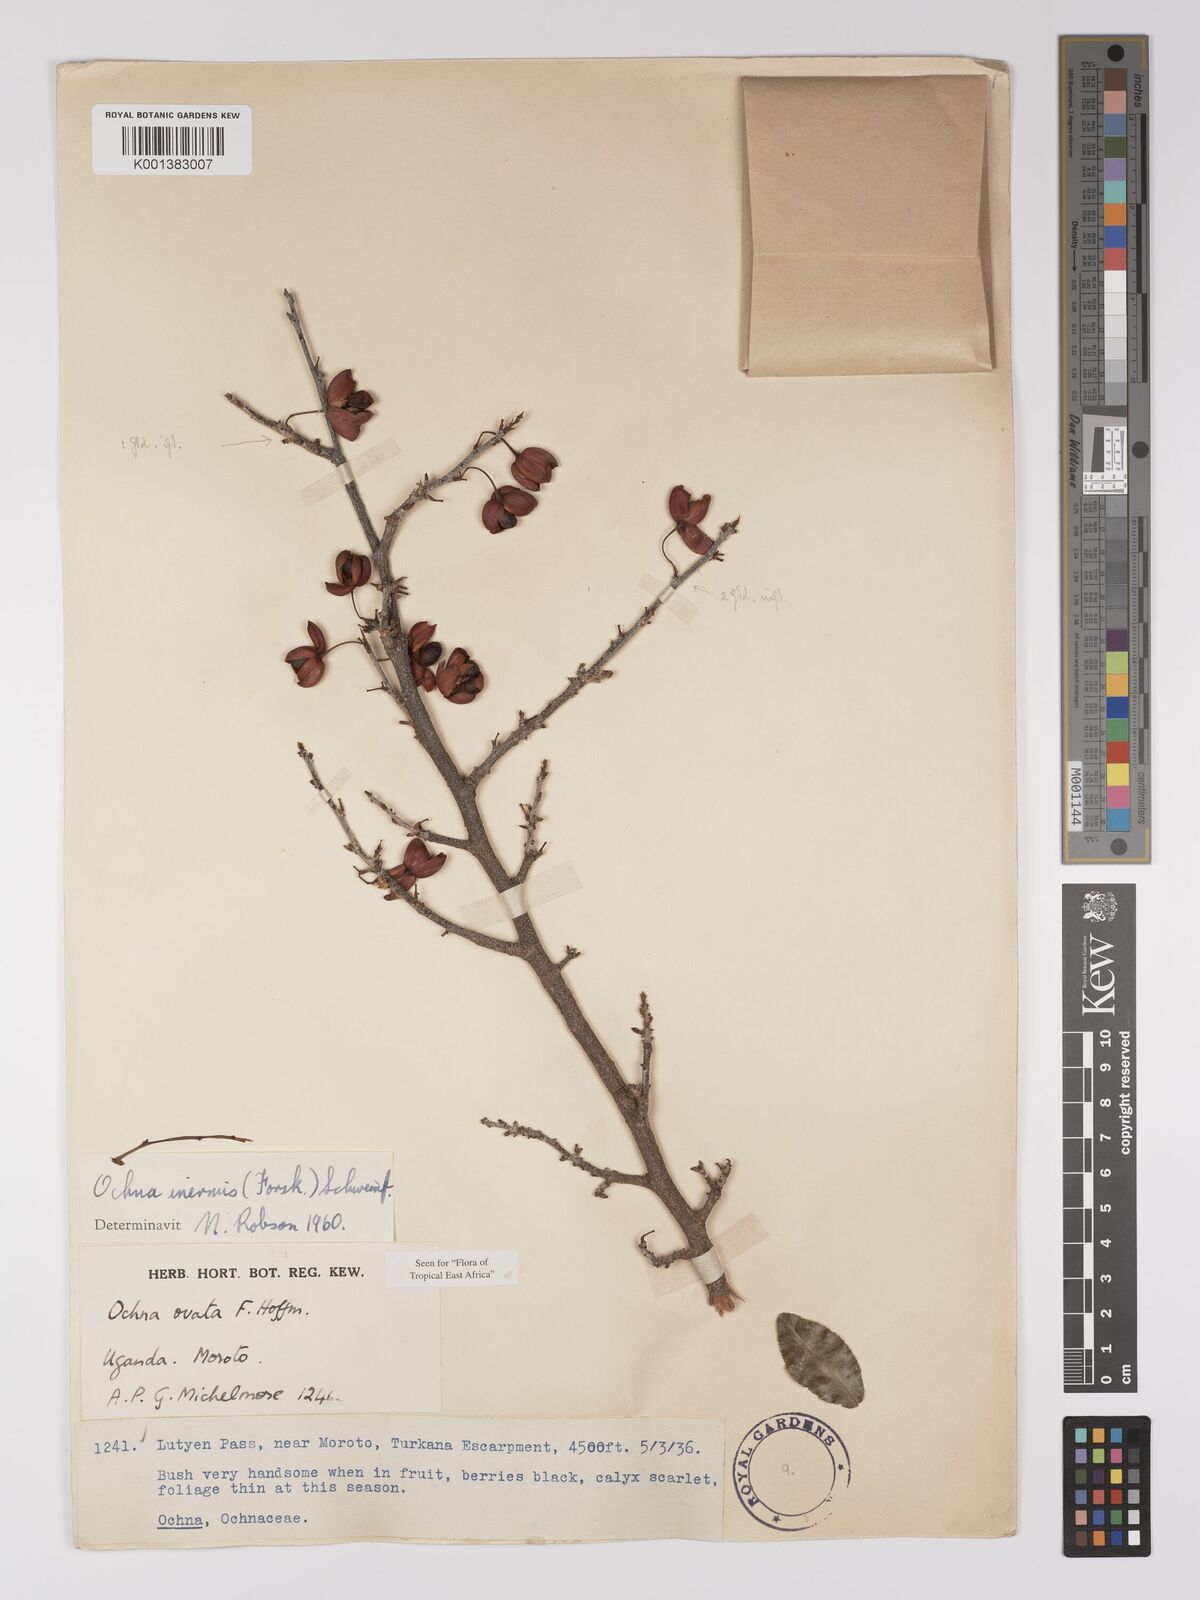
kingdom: Plantae
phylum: Tracheophyta
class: Magnoliopsida
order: Malpighiales
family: Ochnaceae
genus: Ochna
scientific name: Ochna inermis
